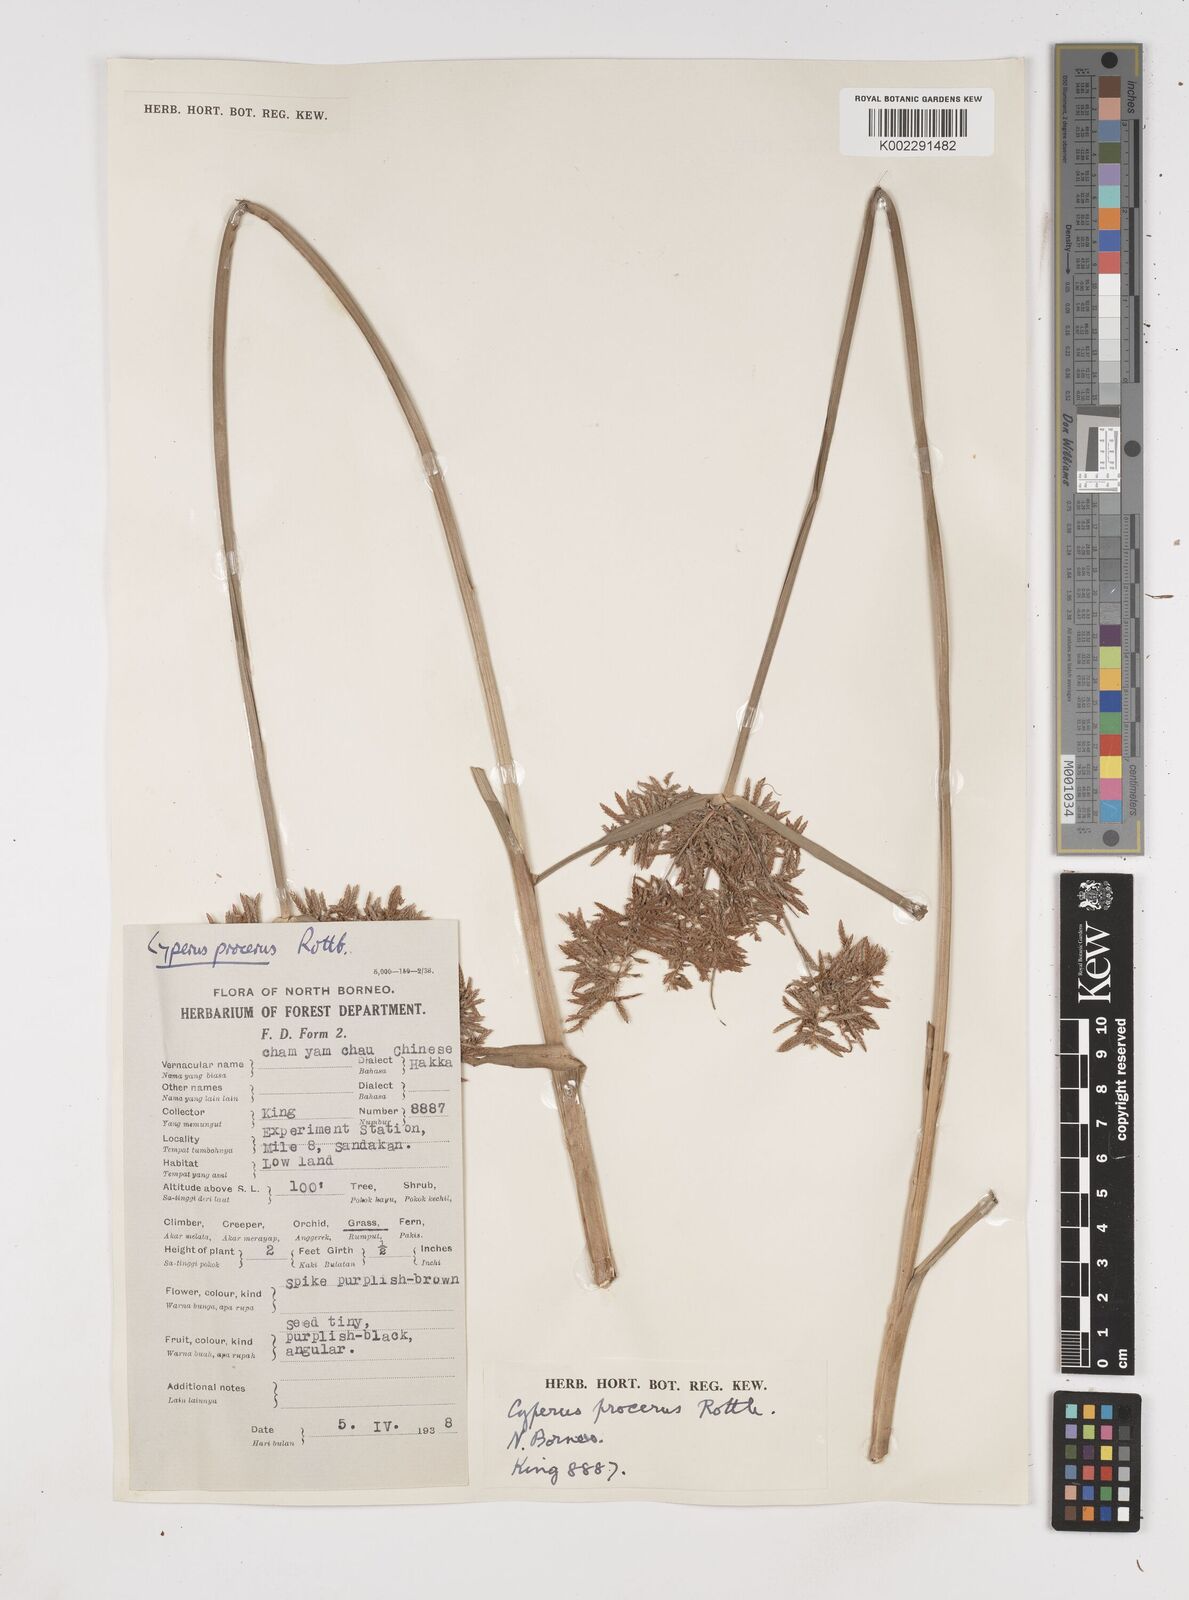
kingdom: Plantae
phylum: Tracheophyta
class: Liliopsida
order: Poales
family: Cyperaceae
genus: Cyperus
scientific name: Cyperus procerus
